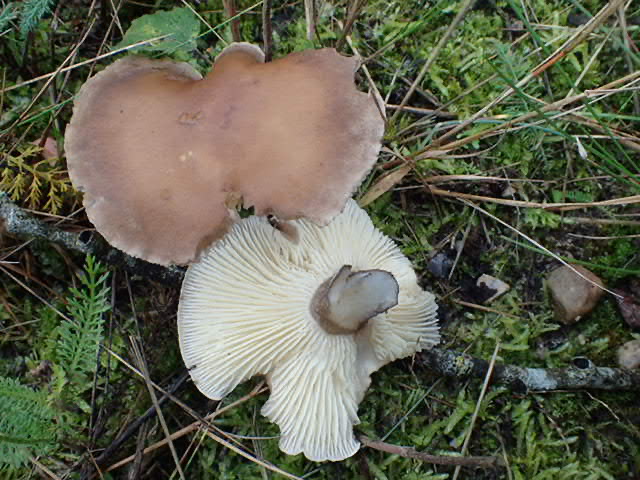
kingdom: Fungi
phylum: Basidiomycota
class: Agaricomycetes
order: Agaricales
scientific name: Agaricales
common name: champignonordenen
